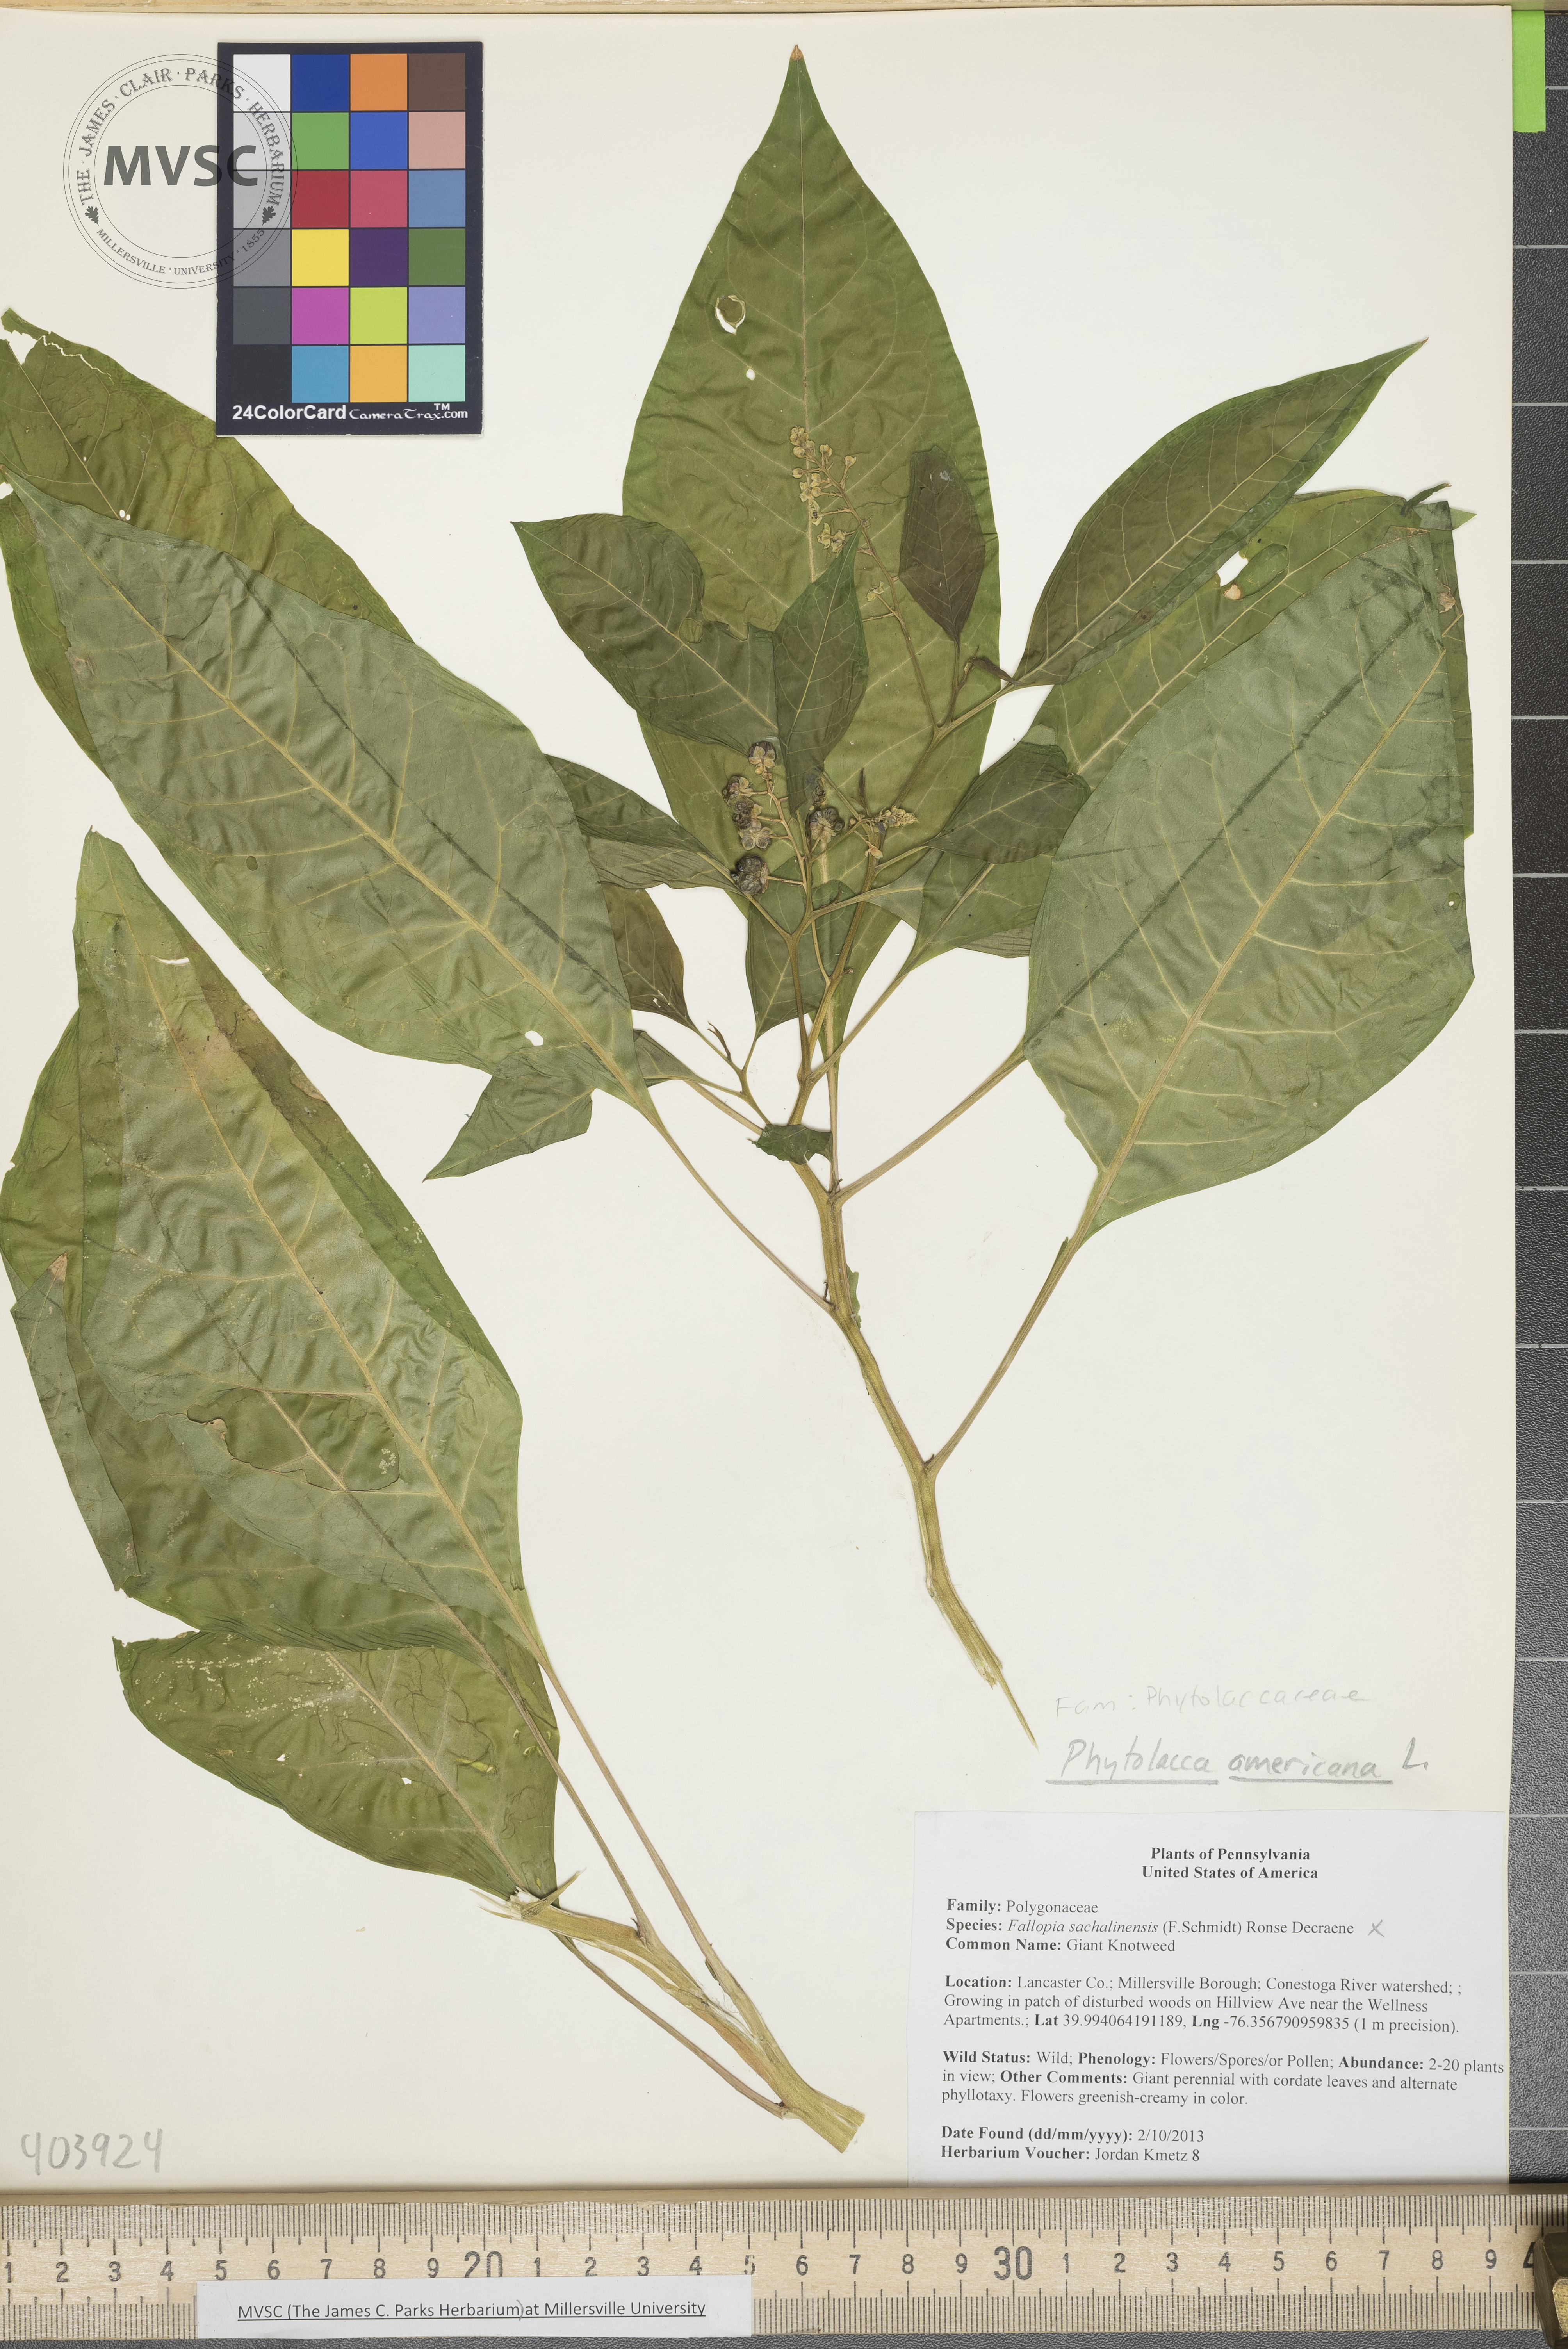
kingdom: Plantae
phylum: Tracheophyta
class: Magnoliopsida
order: Caryophyllales
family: Phytolaccaceae
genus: Phytolacca
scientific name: Phytolacca americana
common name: Pokeweed
